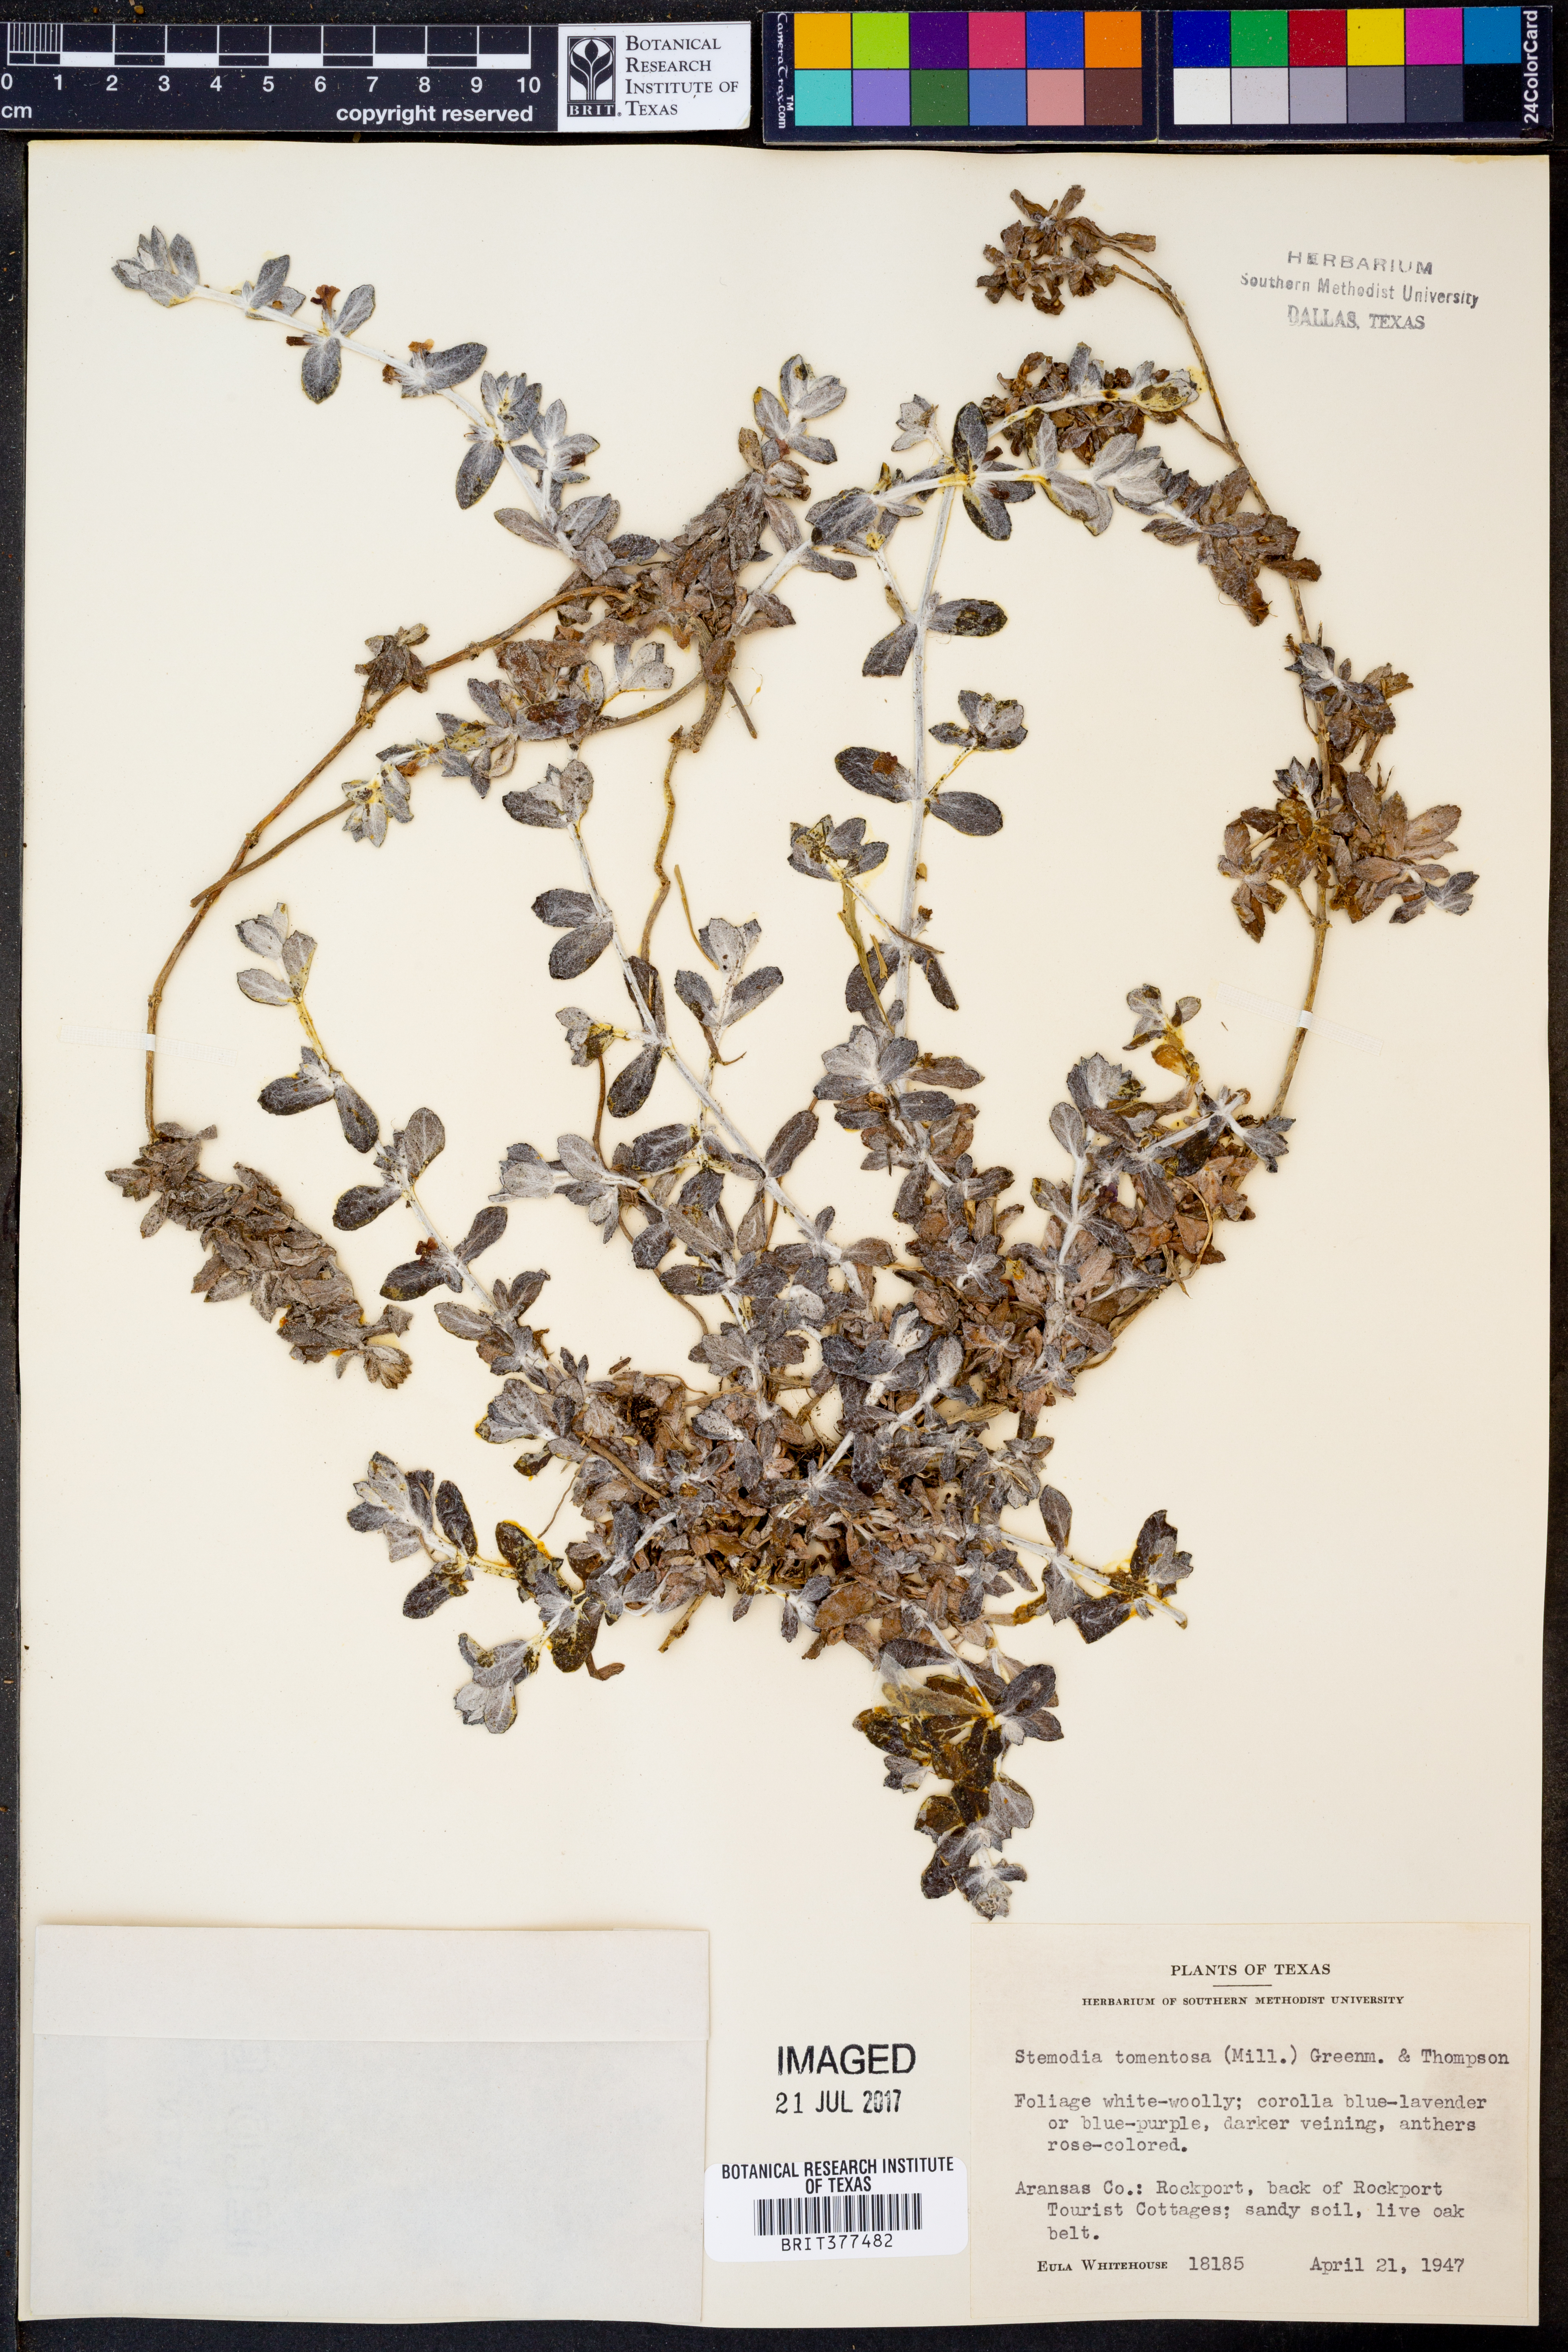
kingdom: Plantae
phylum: Tracheophyta
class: Magnoliopsida
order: Lamiales
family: Plantaginaceae
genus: Stemodia
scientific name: Stemodia lanata
